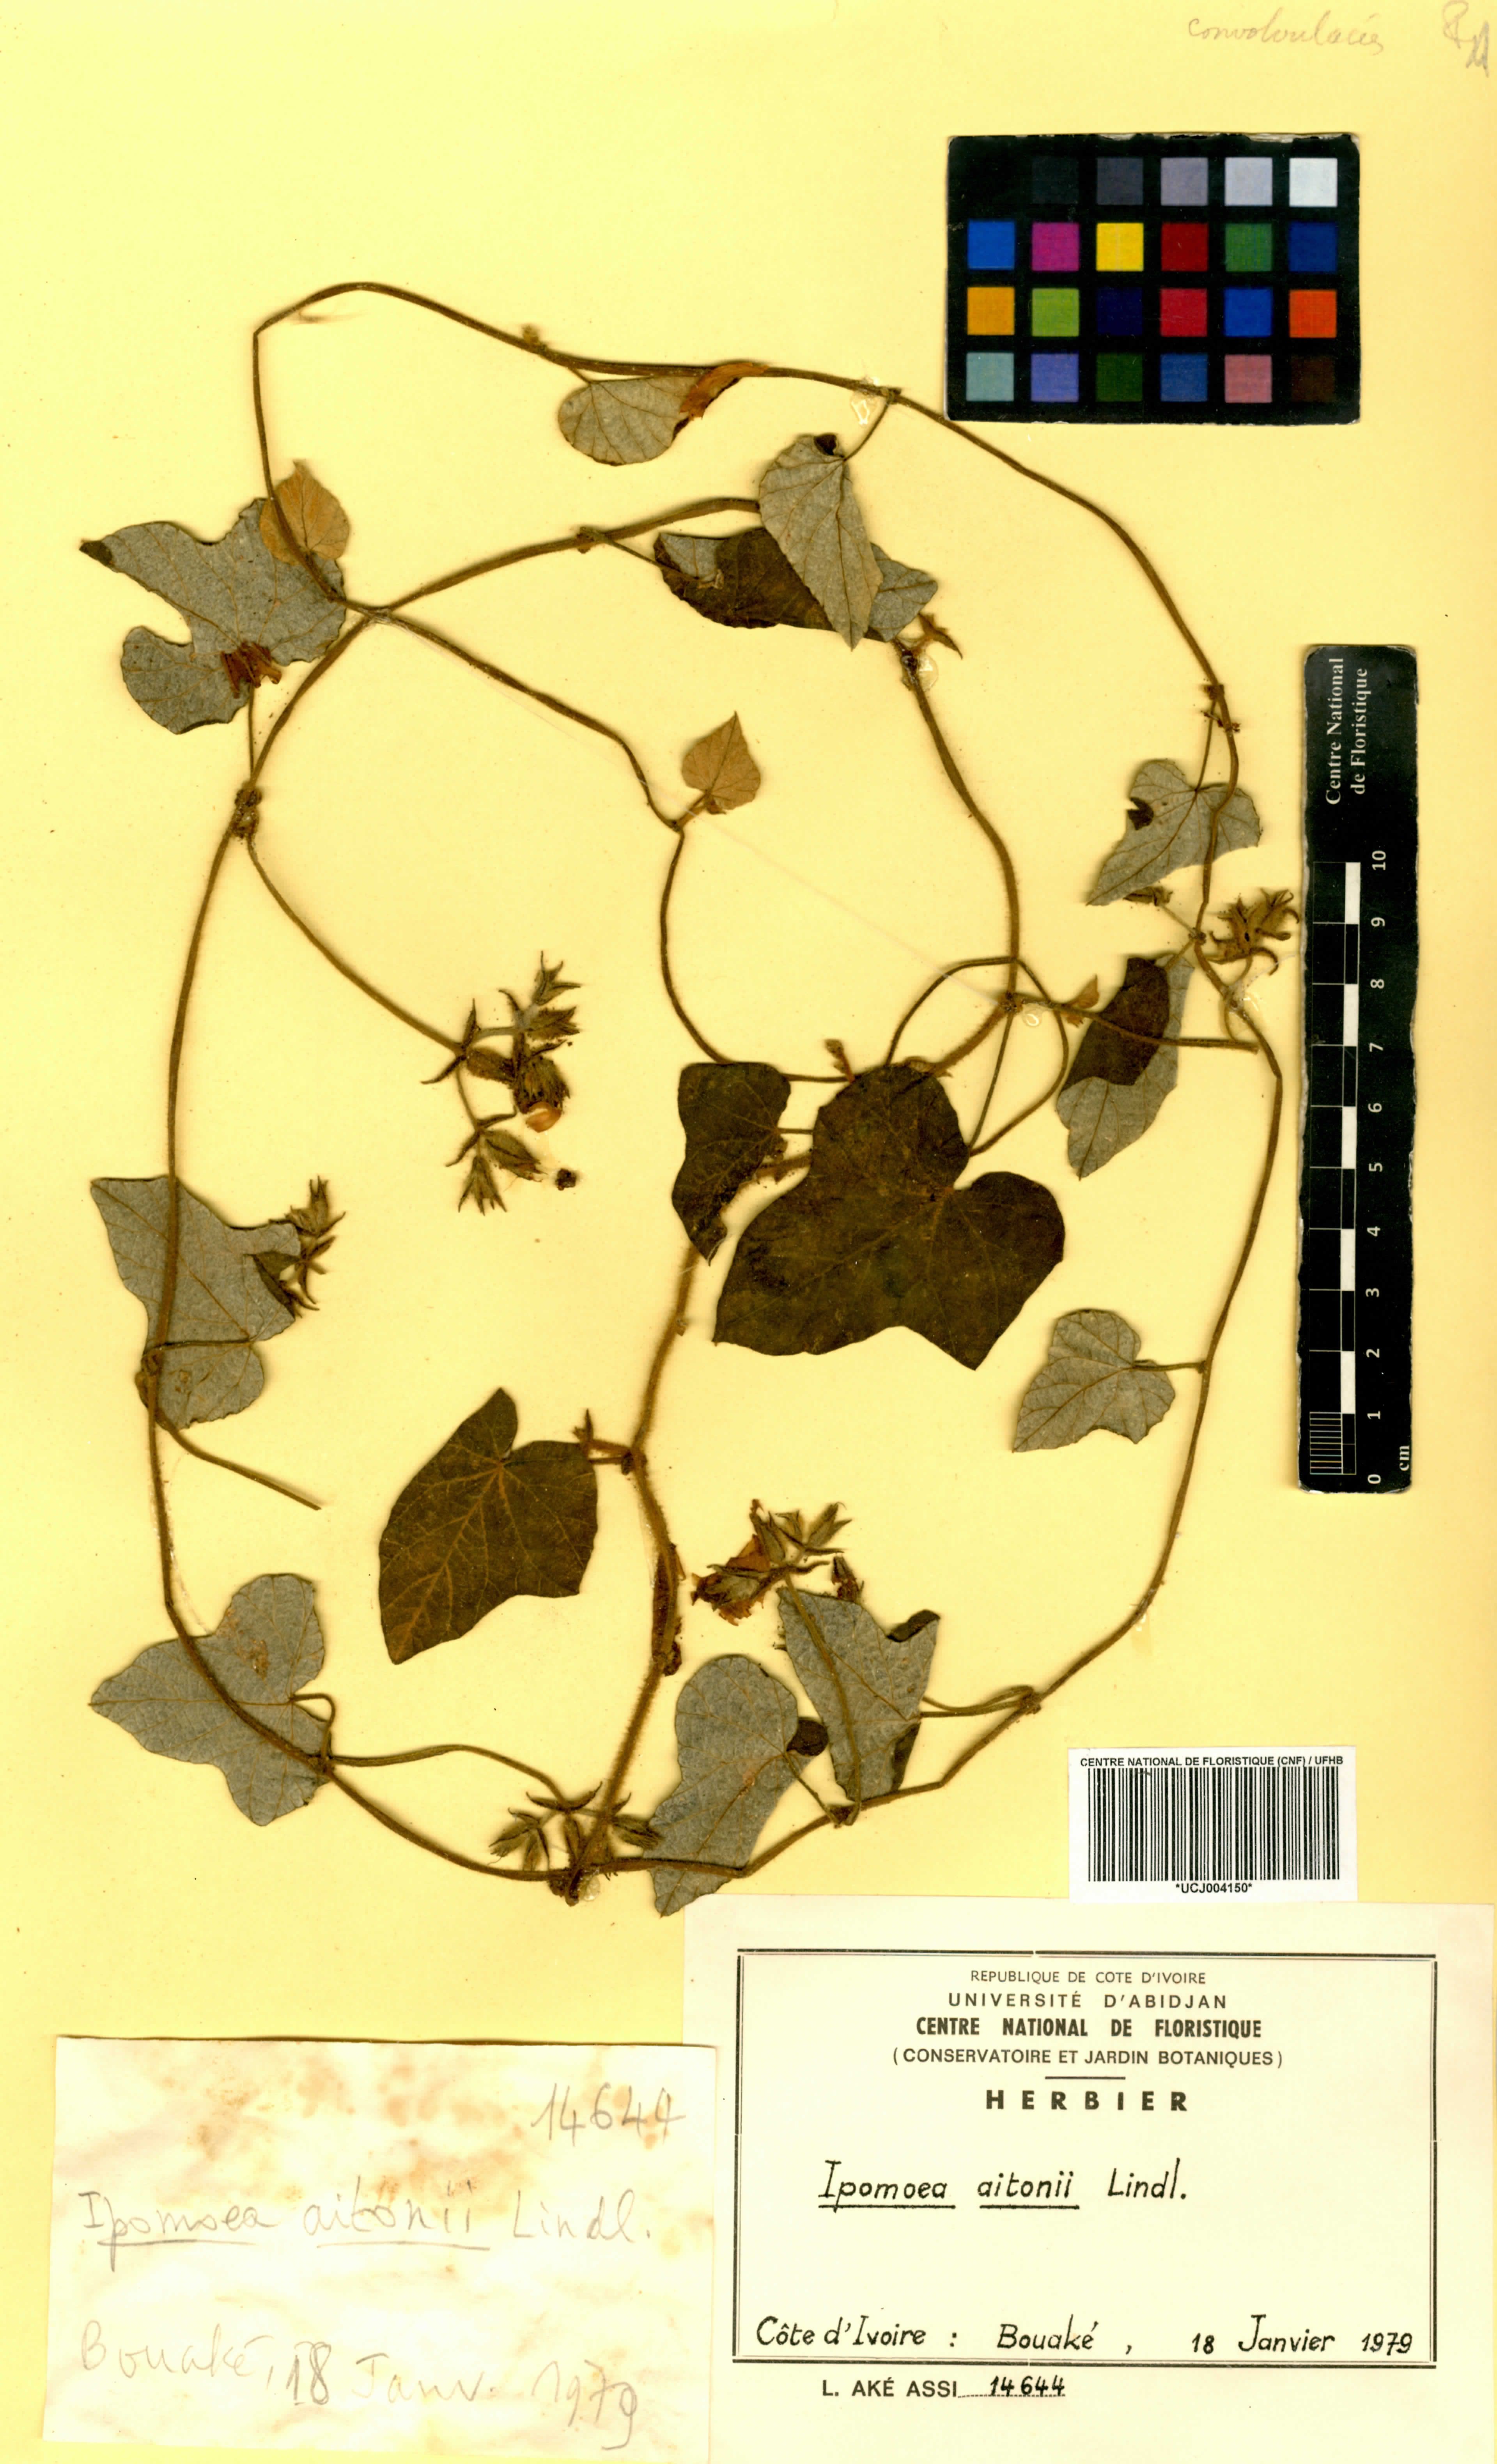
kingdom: Plantae
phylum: Tracheophyta
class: Magnoliopsida
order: Solanales
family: Convolvulaceae
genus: Ipomoea
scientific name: Ipomoea arachnosperma
